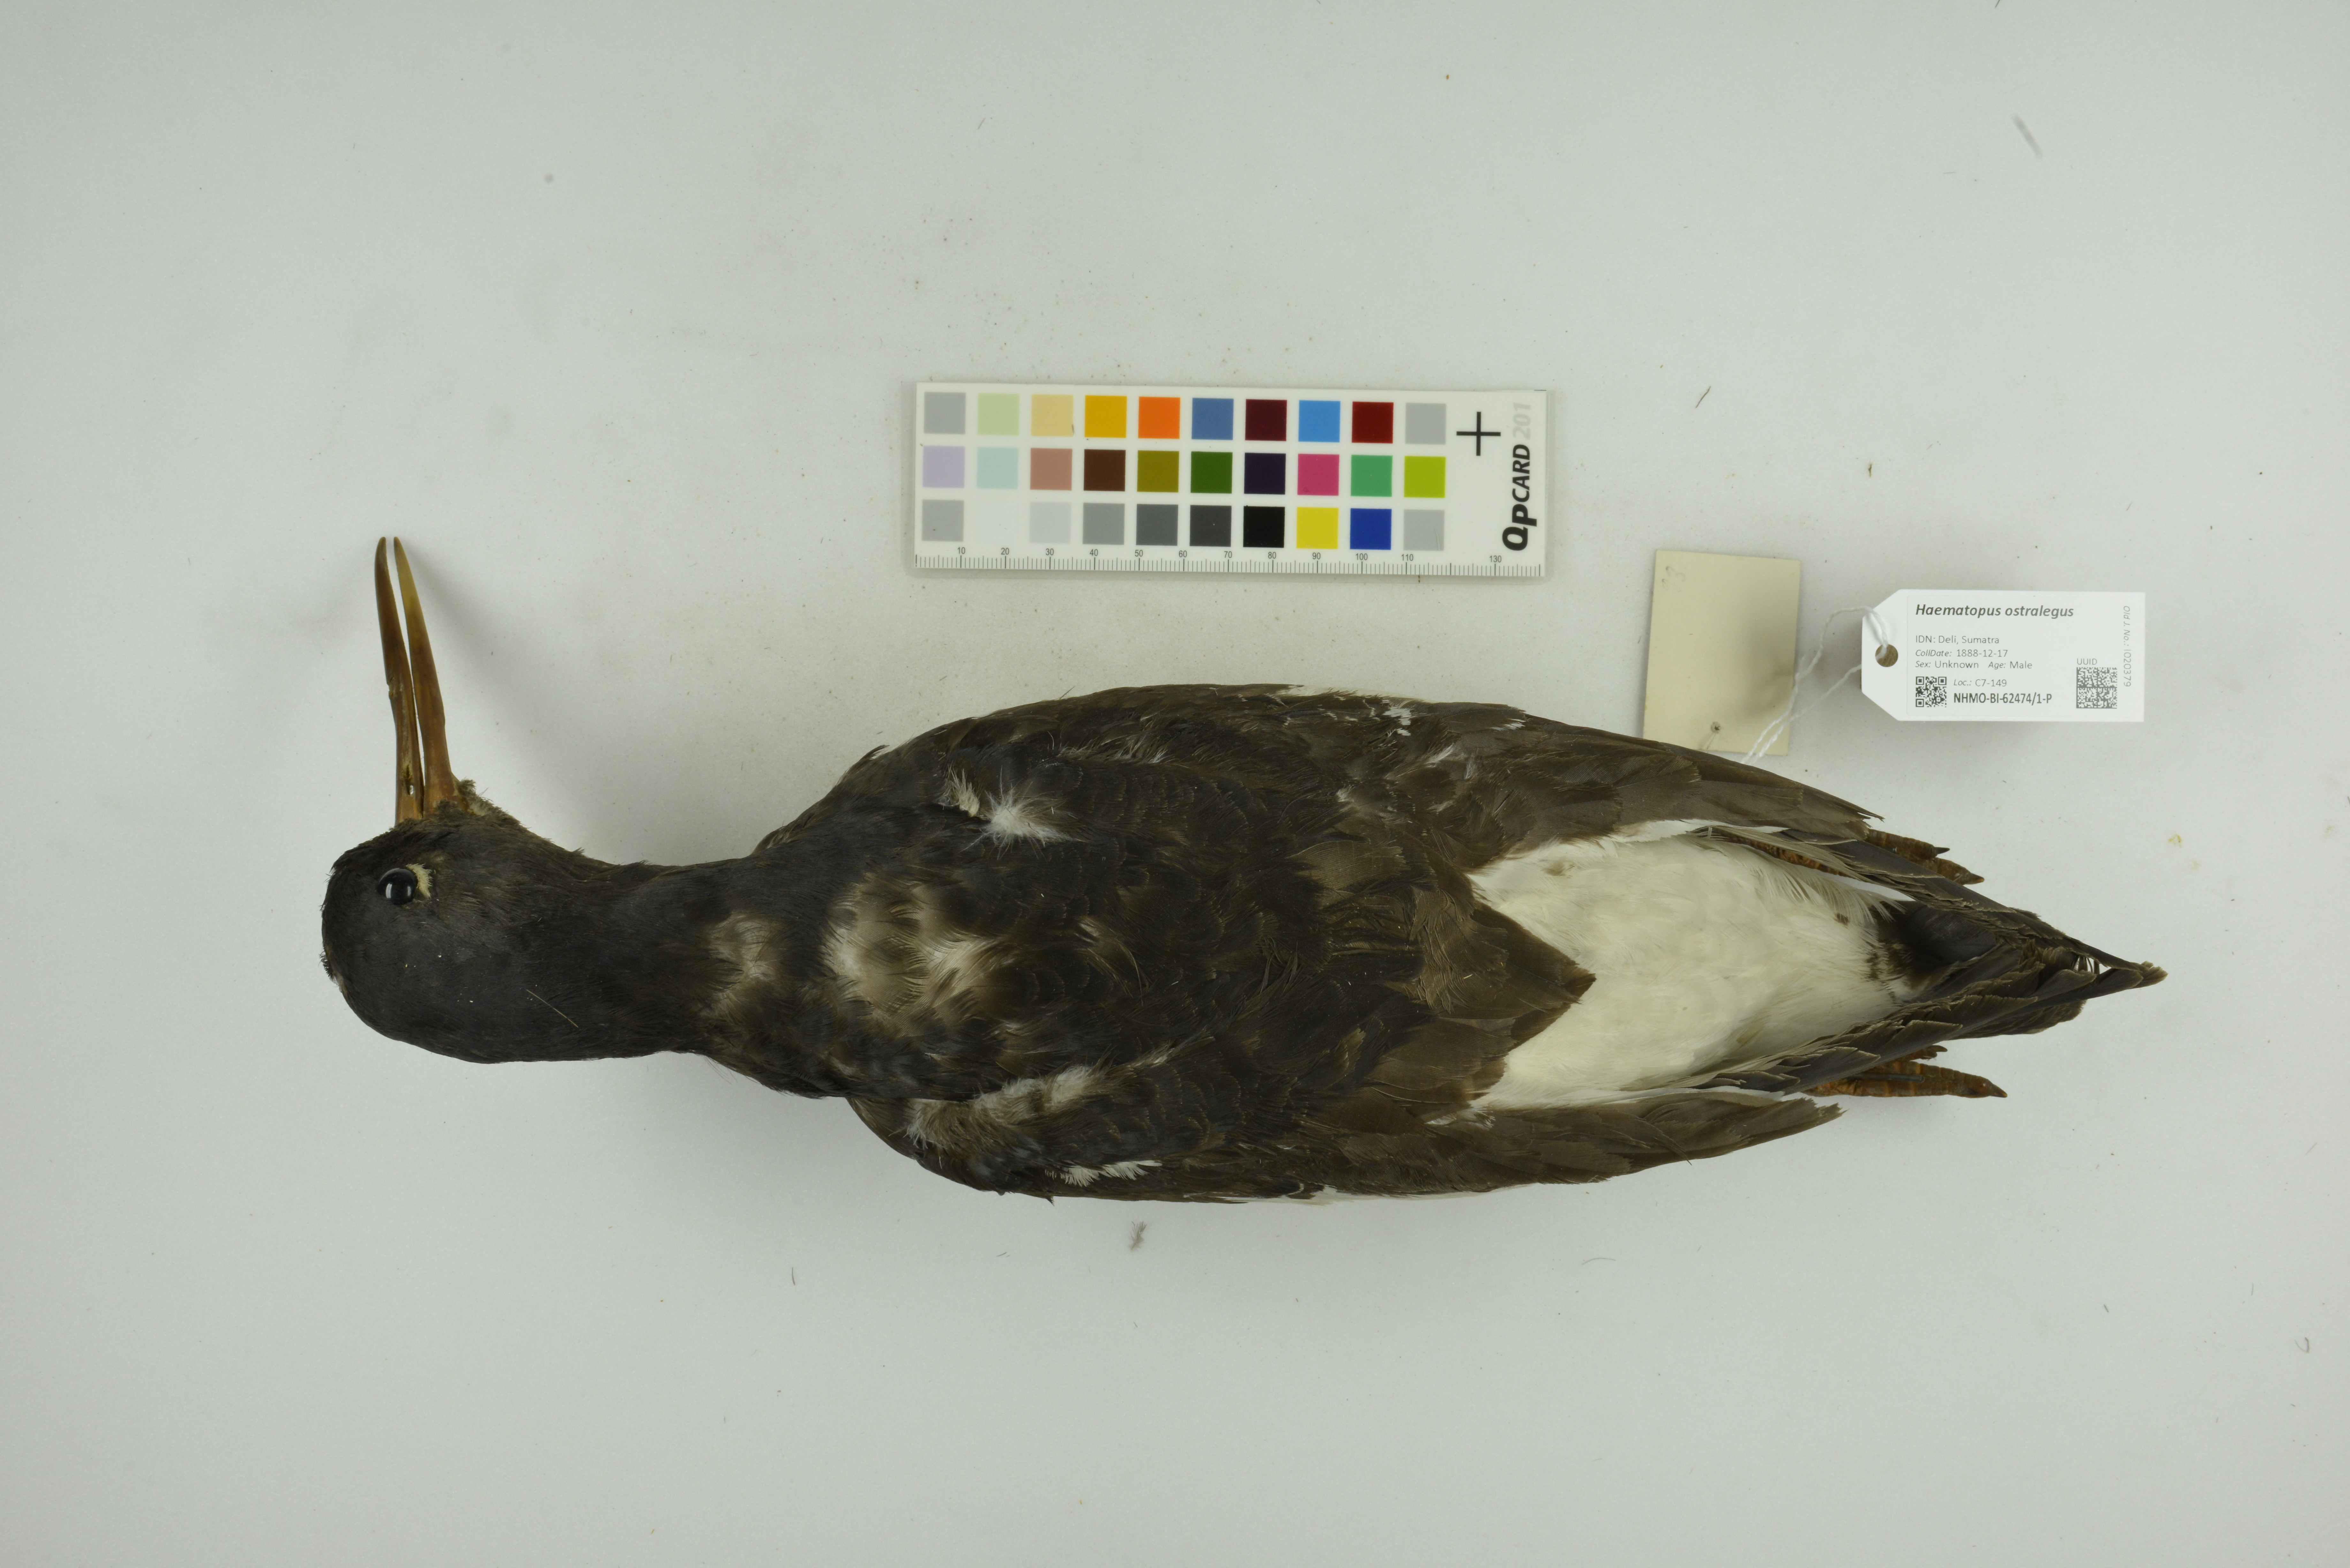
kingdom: Animalia
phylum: Chordata
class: Aves
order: Charadriiformes
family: Haematopodidae
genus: Haematopus
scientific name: Haematopus ostralegus
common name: Eurasian oystercatcher
